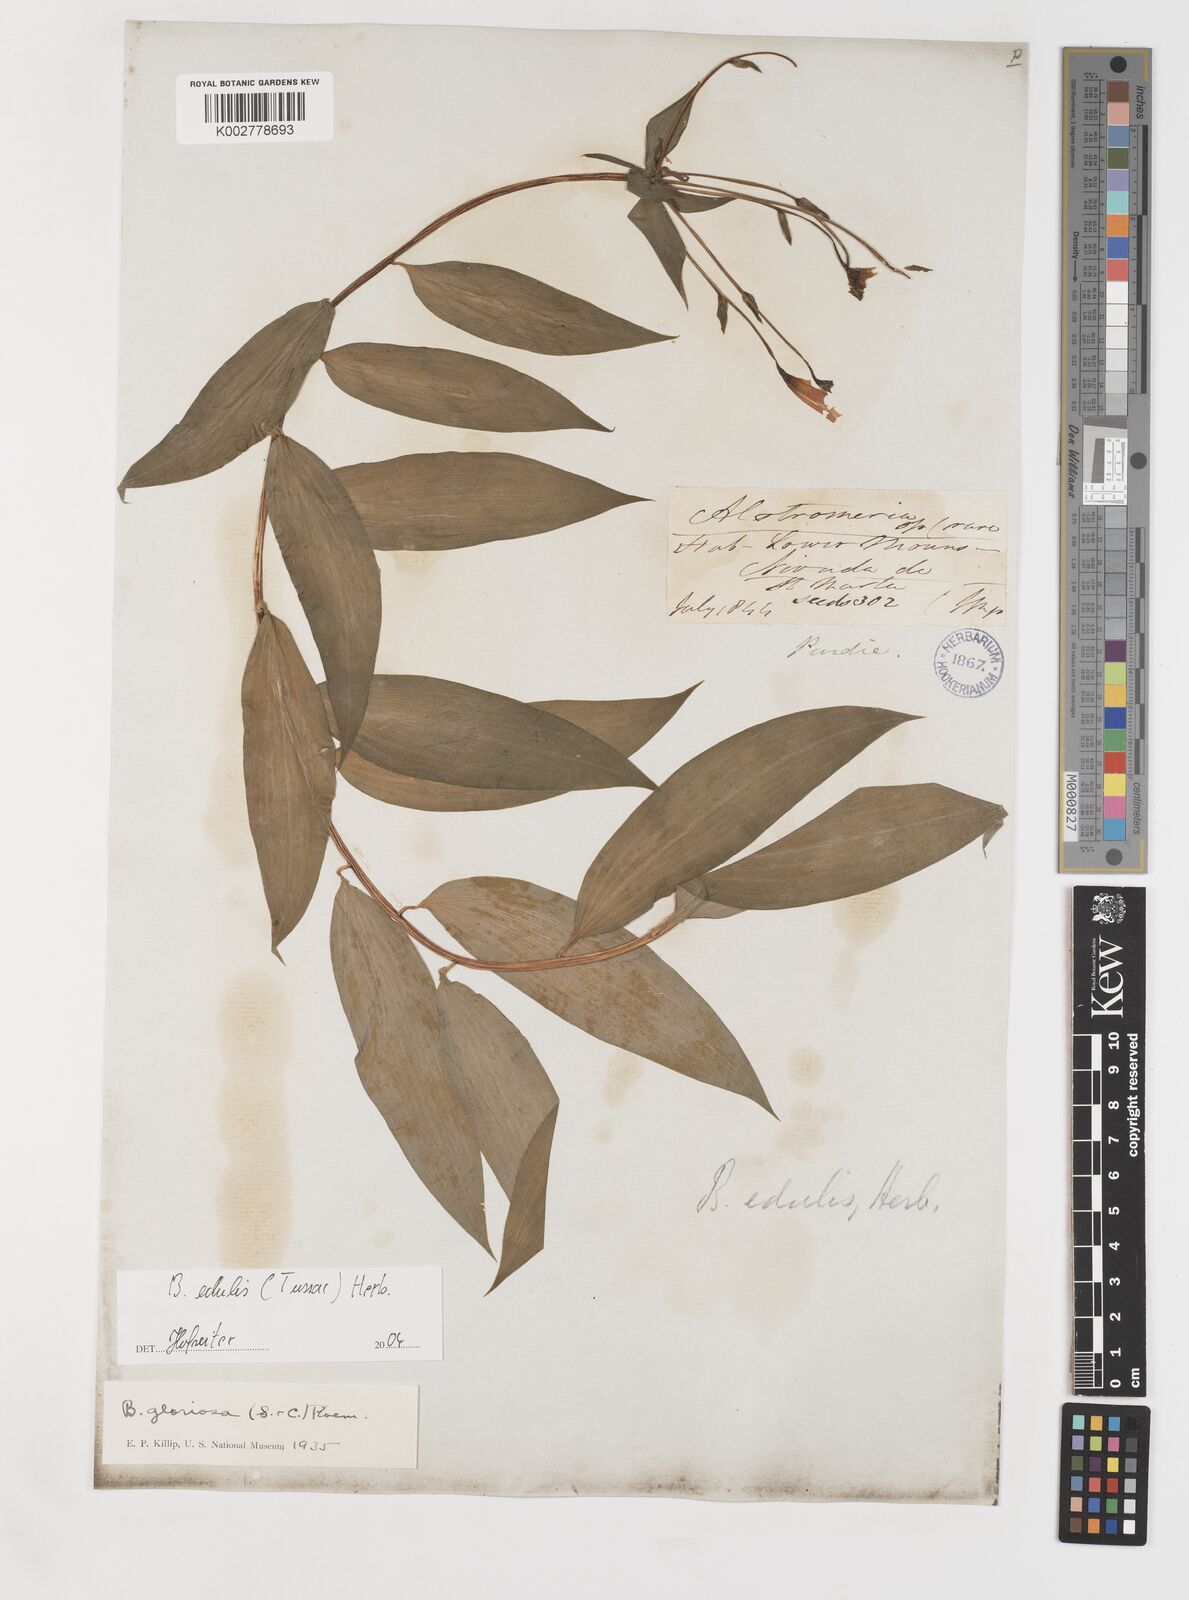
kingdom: Plantae
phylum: Tracheophyta
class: Liliopsida
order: Liliales
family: Alstroemeriaceae
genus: Bomarea
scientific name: Bomarea edulis
